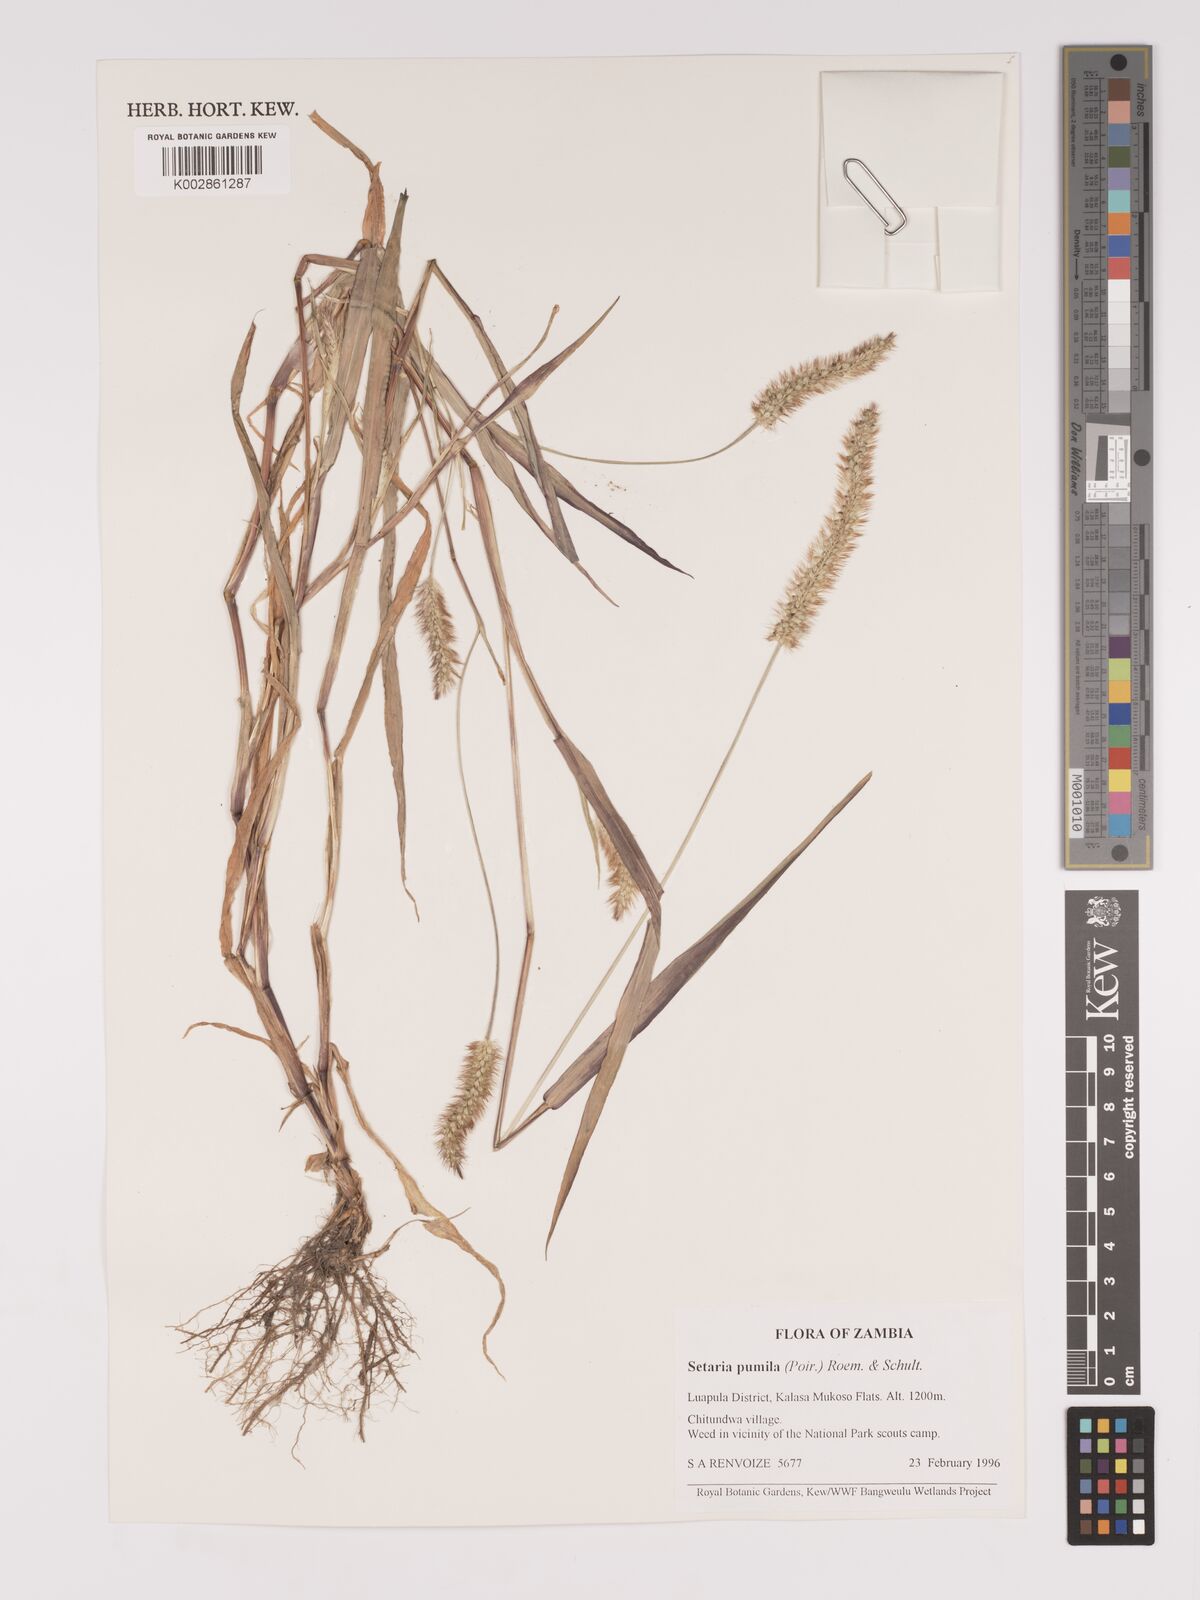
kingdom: Plantae
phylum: Tracheophyta
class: Liliopsida
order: Poales
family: Poaceae
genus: Setaria
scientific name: Setaria pumila
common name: Yellow bristle-grass
